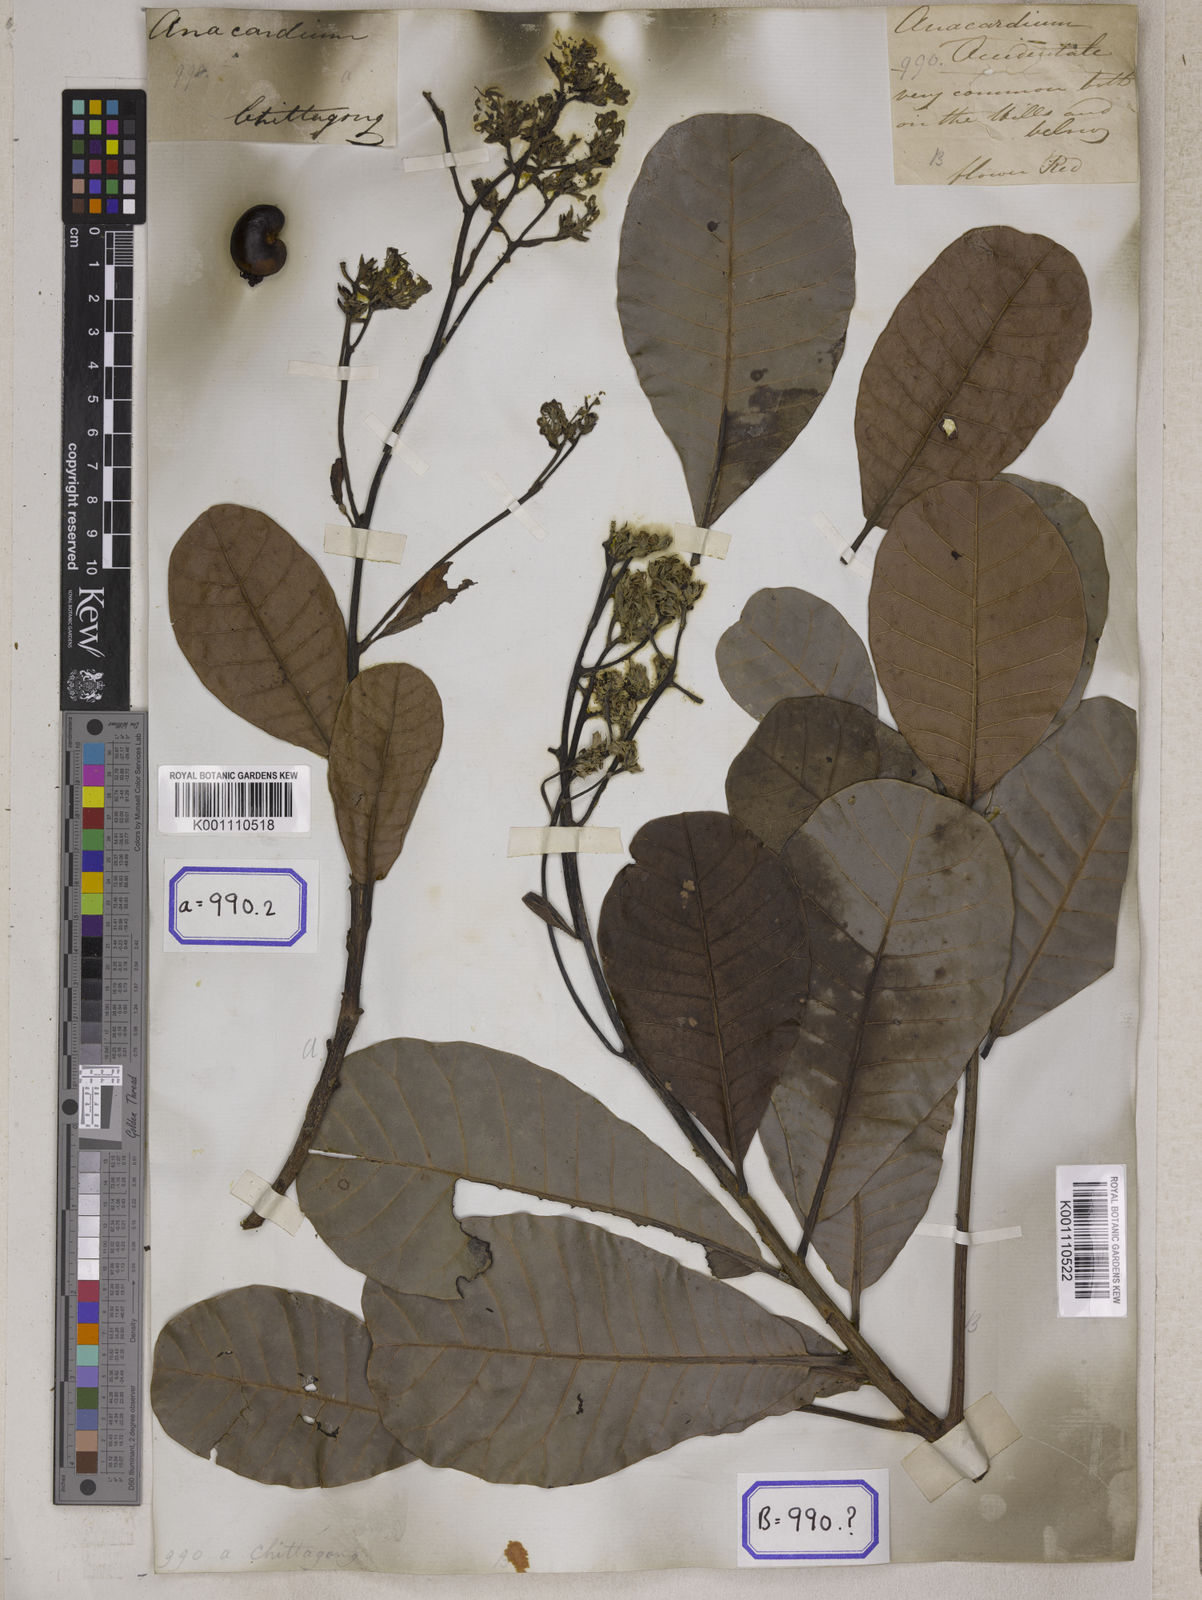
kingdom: Plantae
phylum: Tracheophyta
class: Magnoliopsida
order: Sapindales
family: Anacardiaceae
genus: Anacardium
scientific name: Anacardium occidentale
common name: Cashew
